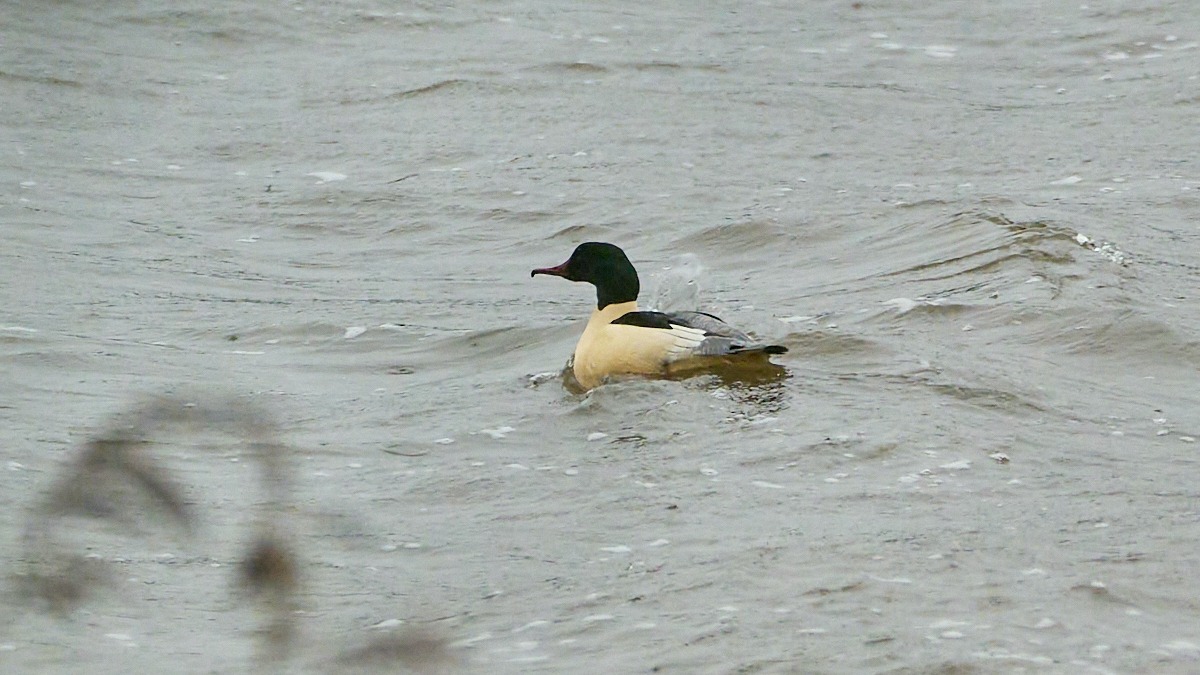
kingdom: Animalia
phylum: Chordata
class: Aves
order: Anseriformes
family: Anatidae
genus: Mergus
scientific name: Mergus merganser
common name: Stor skallesluger
